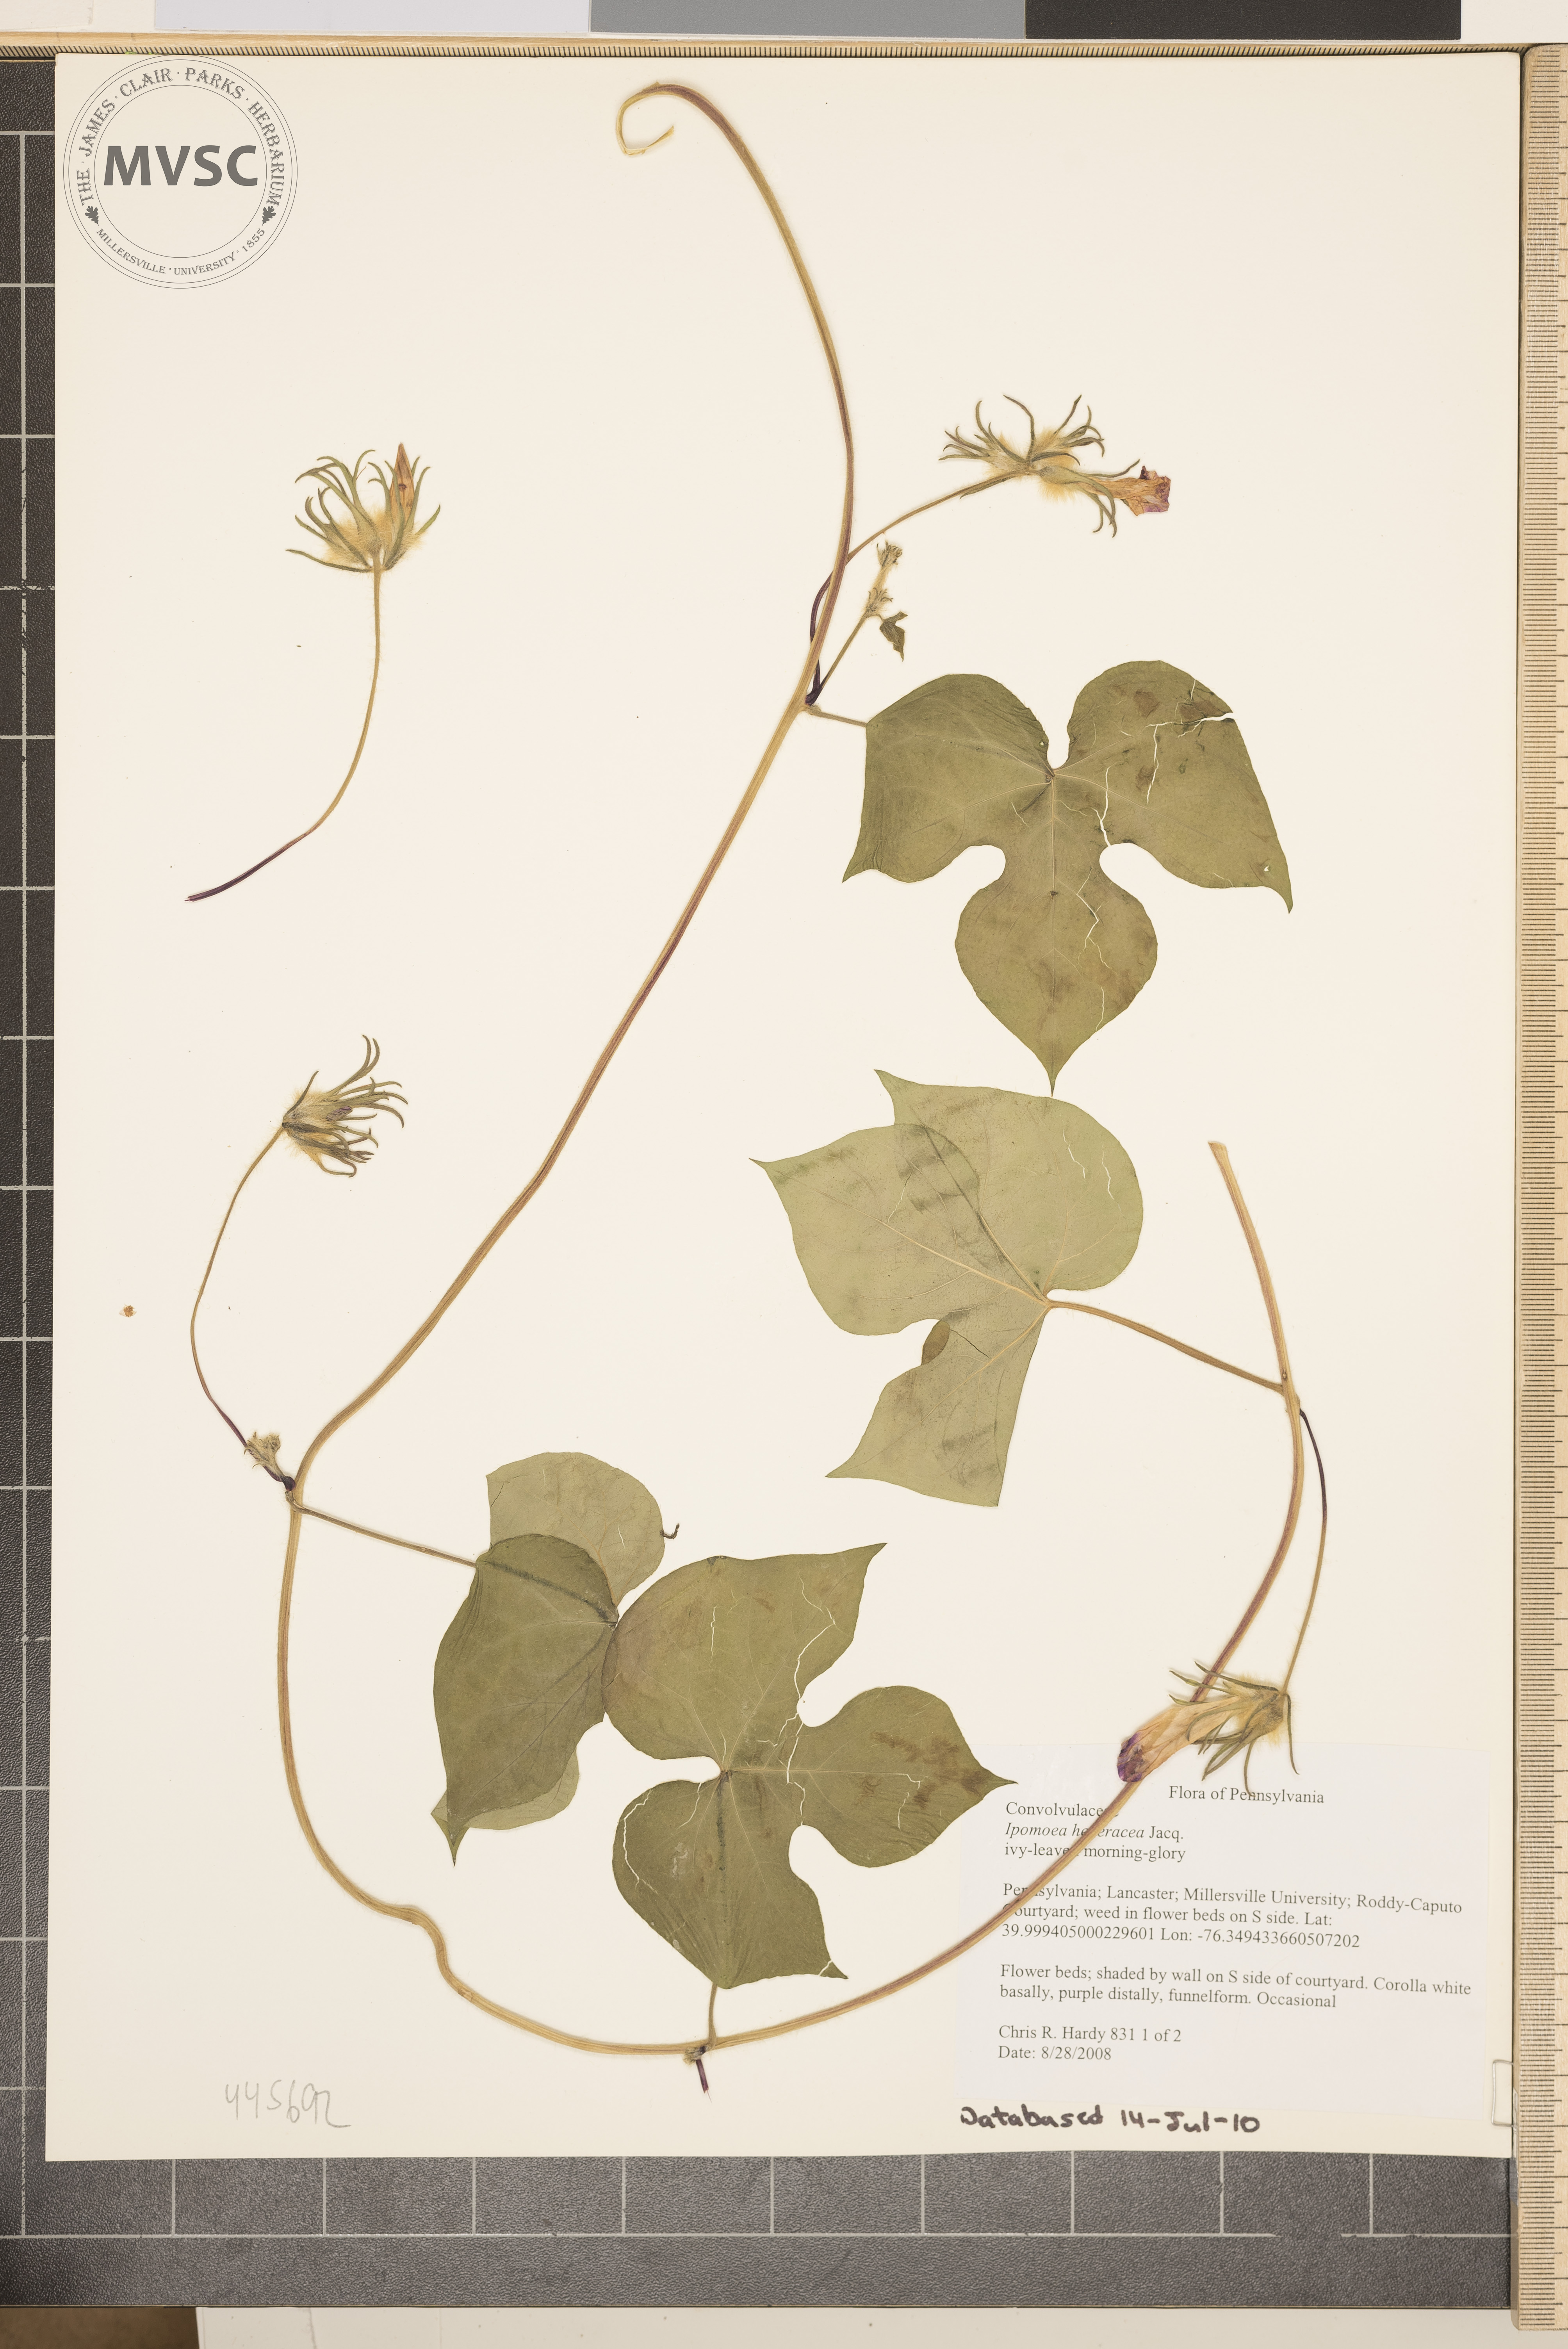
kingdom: Plantae
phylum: Tracheophyta
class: Magnoliopsida
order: Solanales
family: Convolvulaceae
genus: Ipomoea
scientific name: Ipomoea hederacea
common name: Ivy-leaved morning-glory
